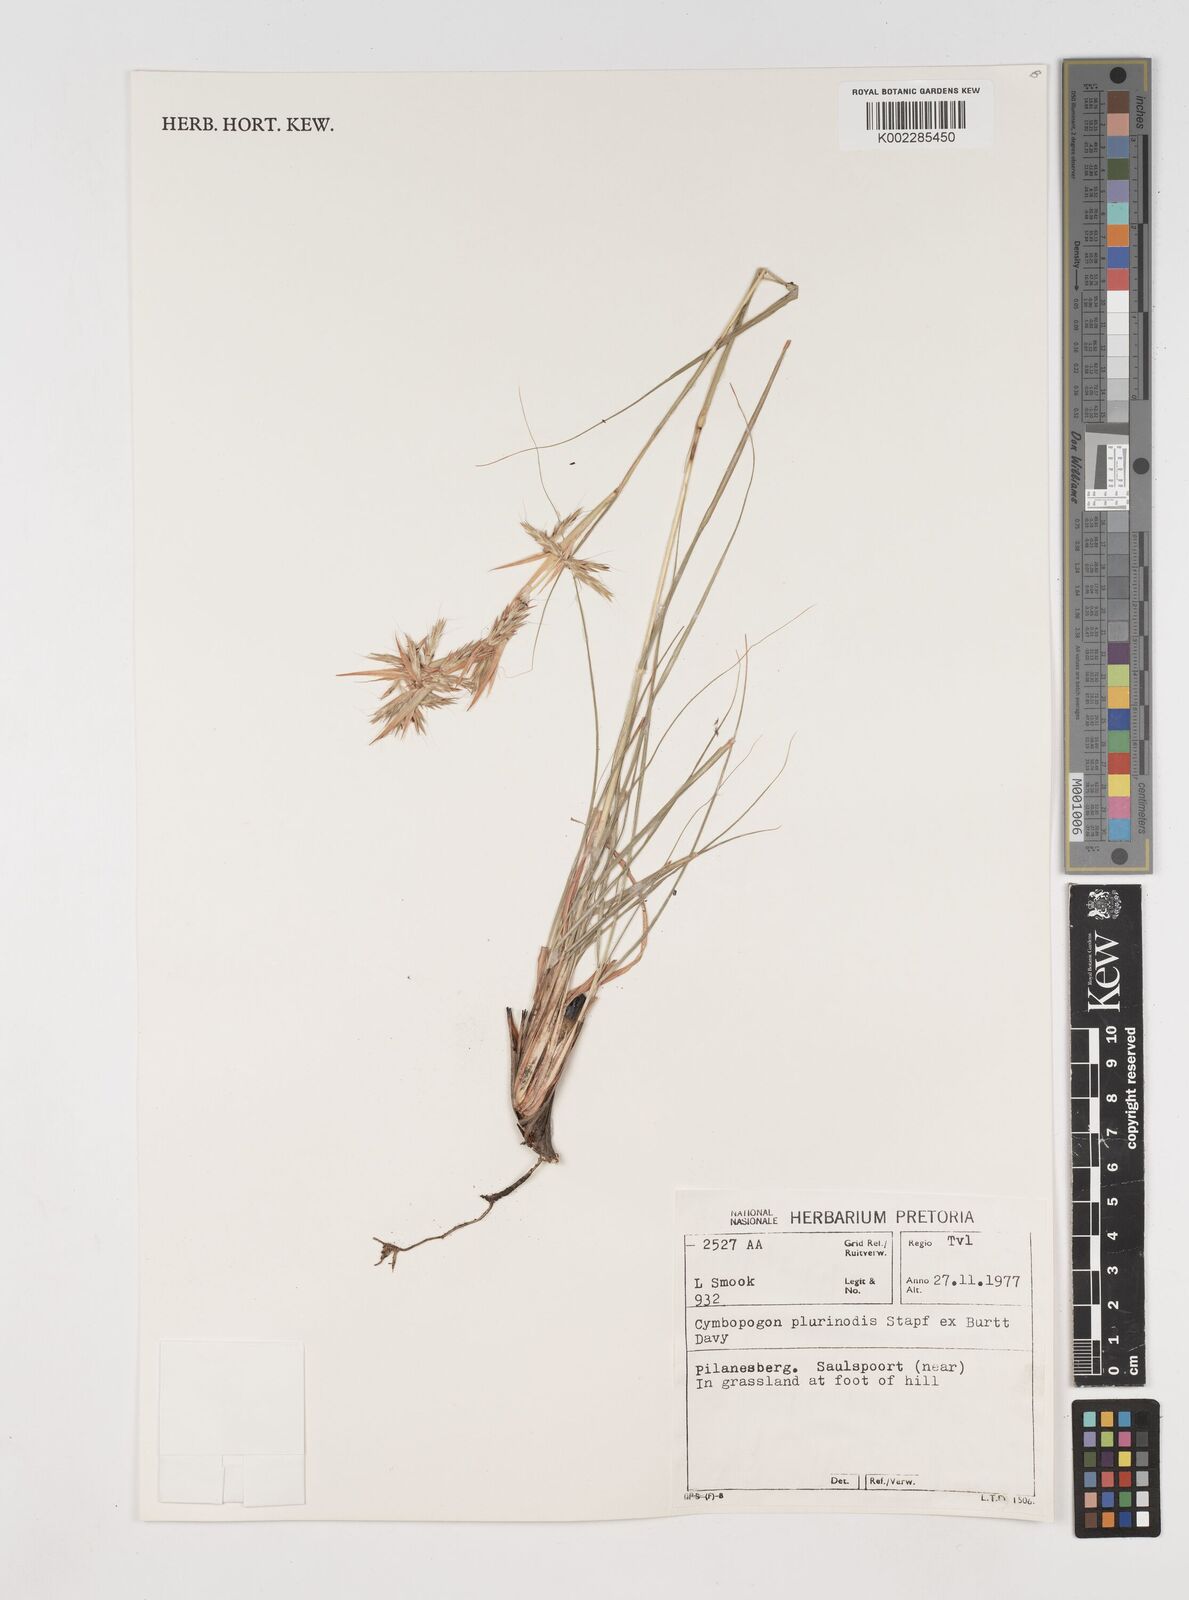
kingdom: Plantae
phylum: Tracheophyta
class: Liliopsida
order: Poales
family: Poaceae
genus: Cymbopogon
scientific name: Cymbopogon pospischilii
